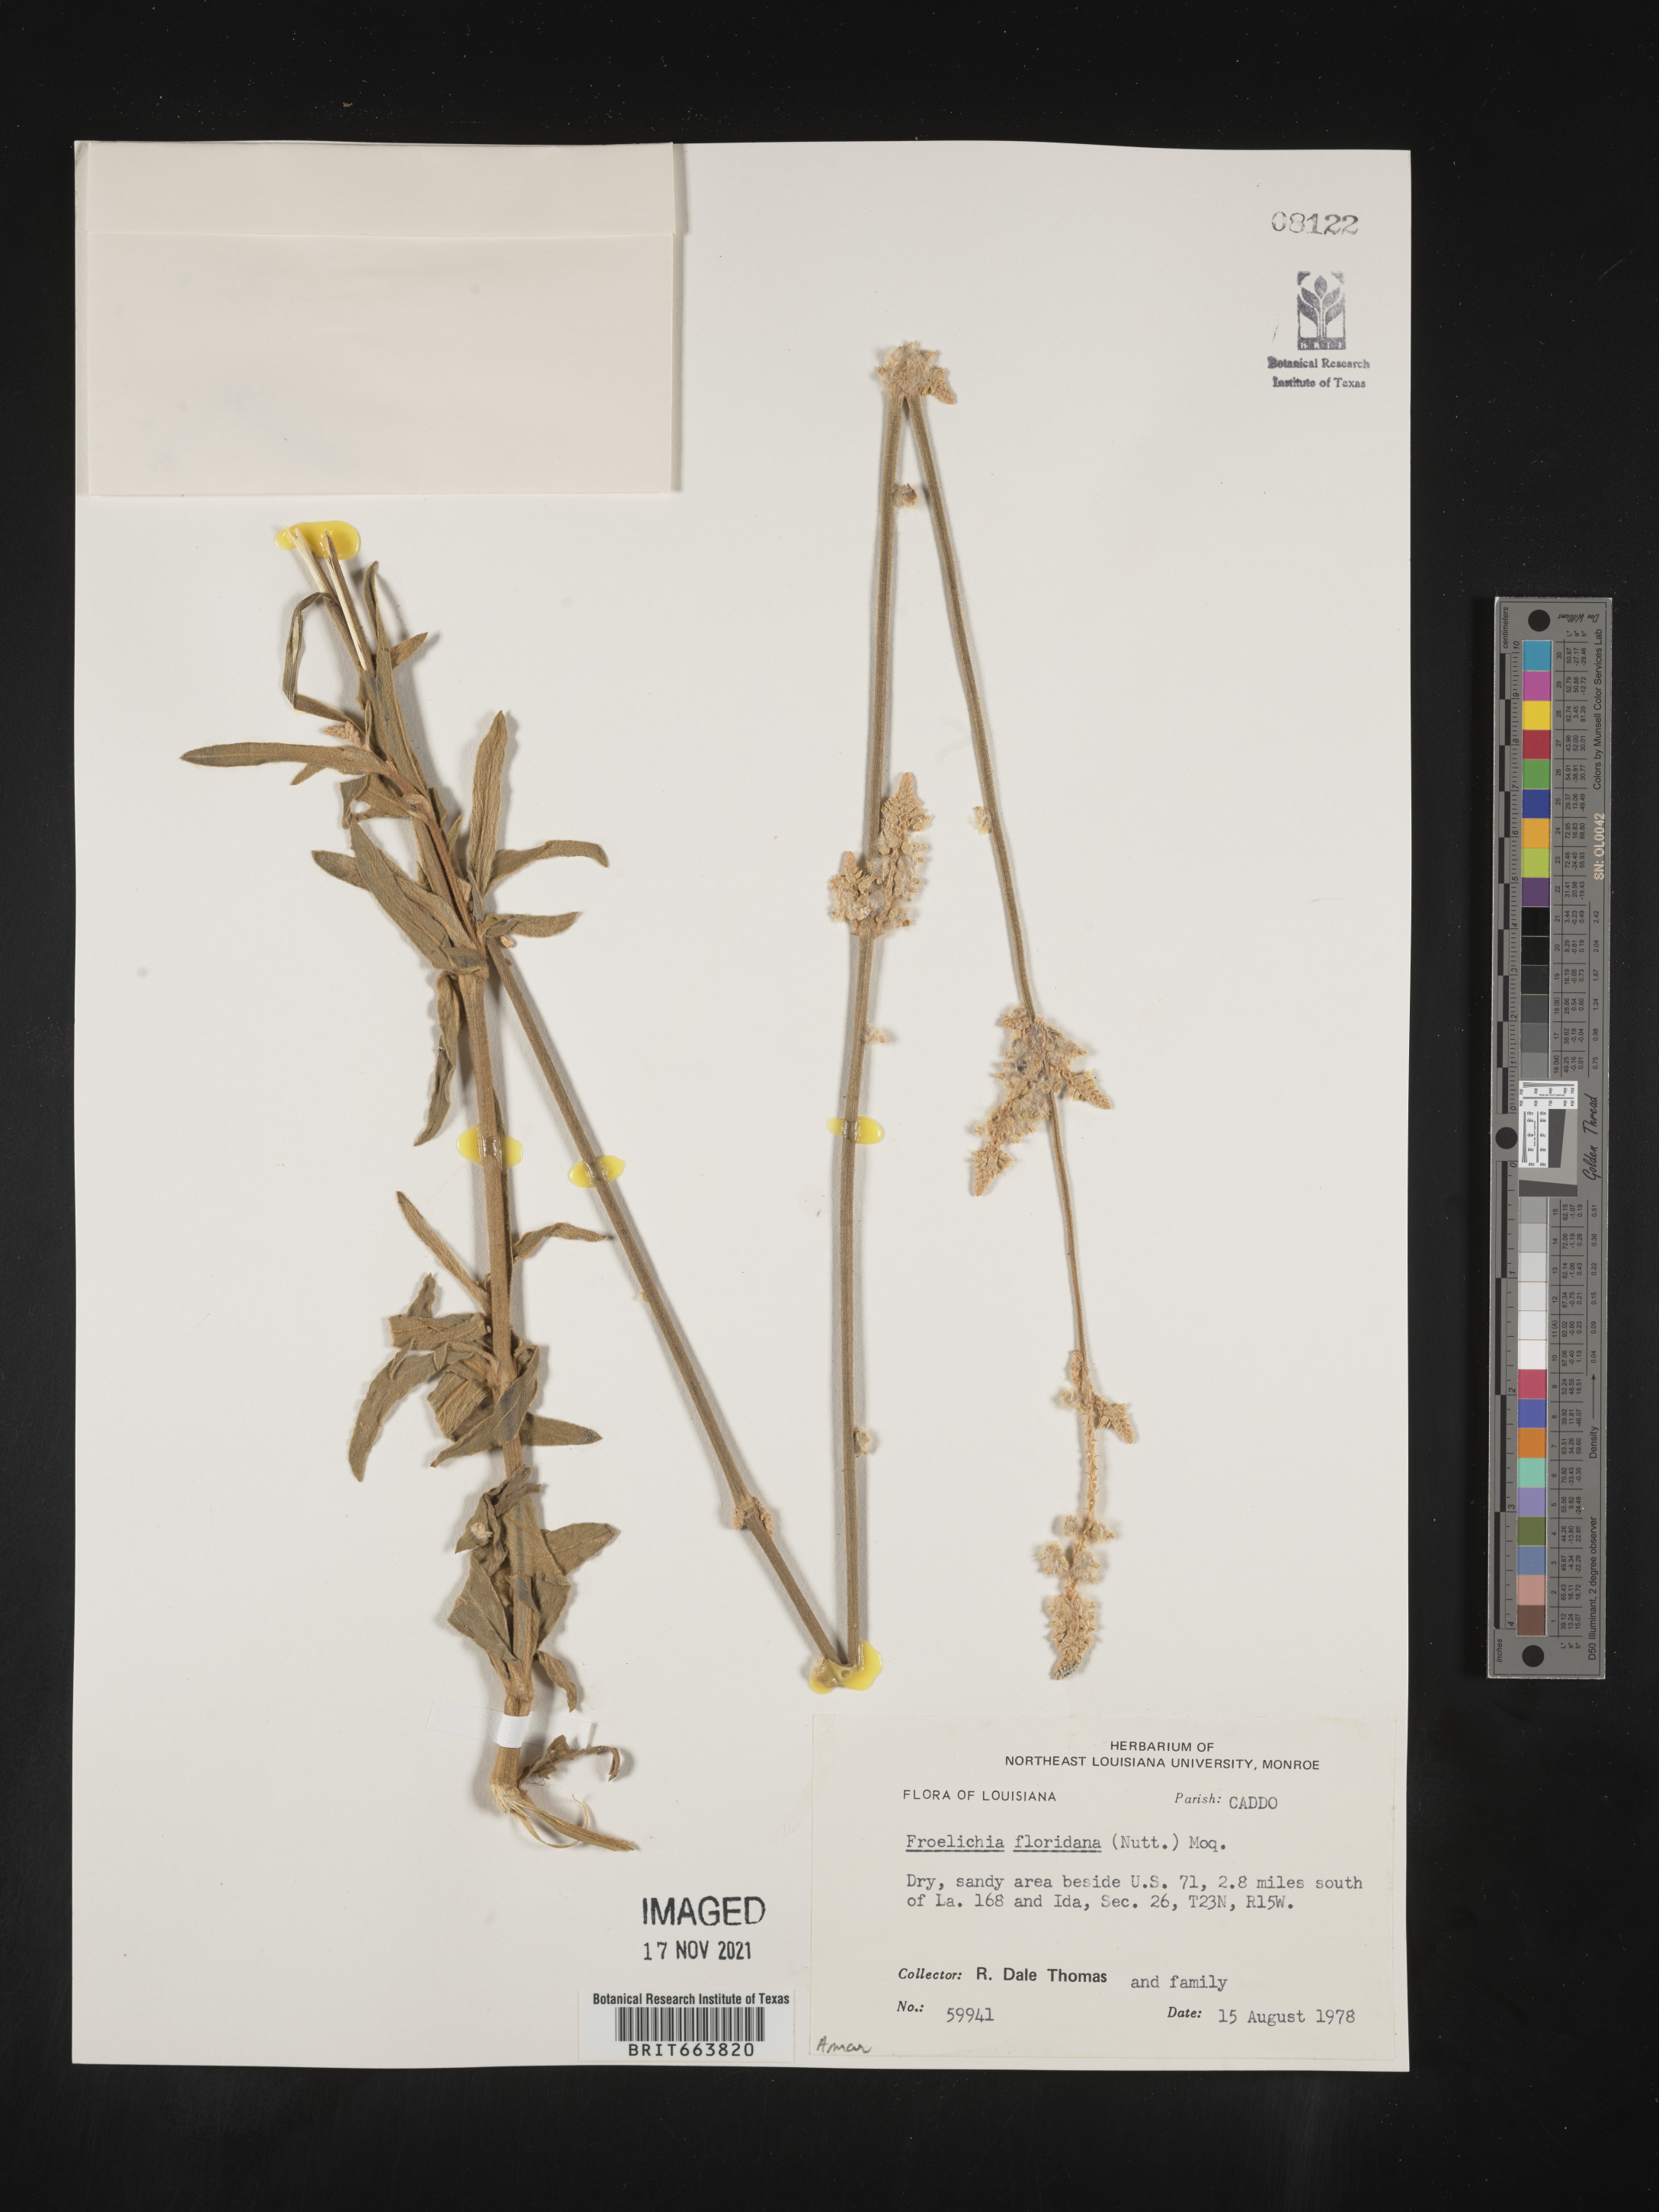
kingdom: Plantae
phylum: Tracheophyta
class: Magnoliopsida
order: Caryophyllales
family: Amaranthaceae
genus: Froelichia
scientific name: Froelichia floridana
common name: Florida snake-cotton
